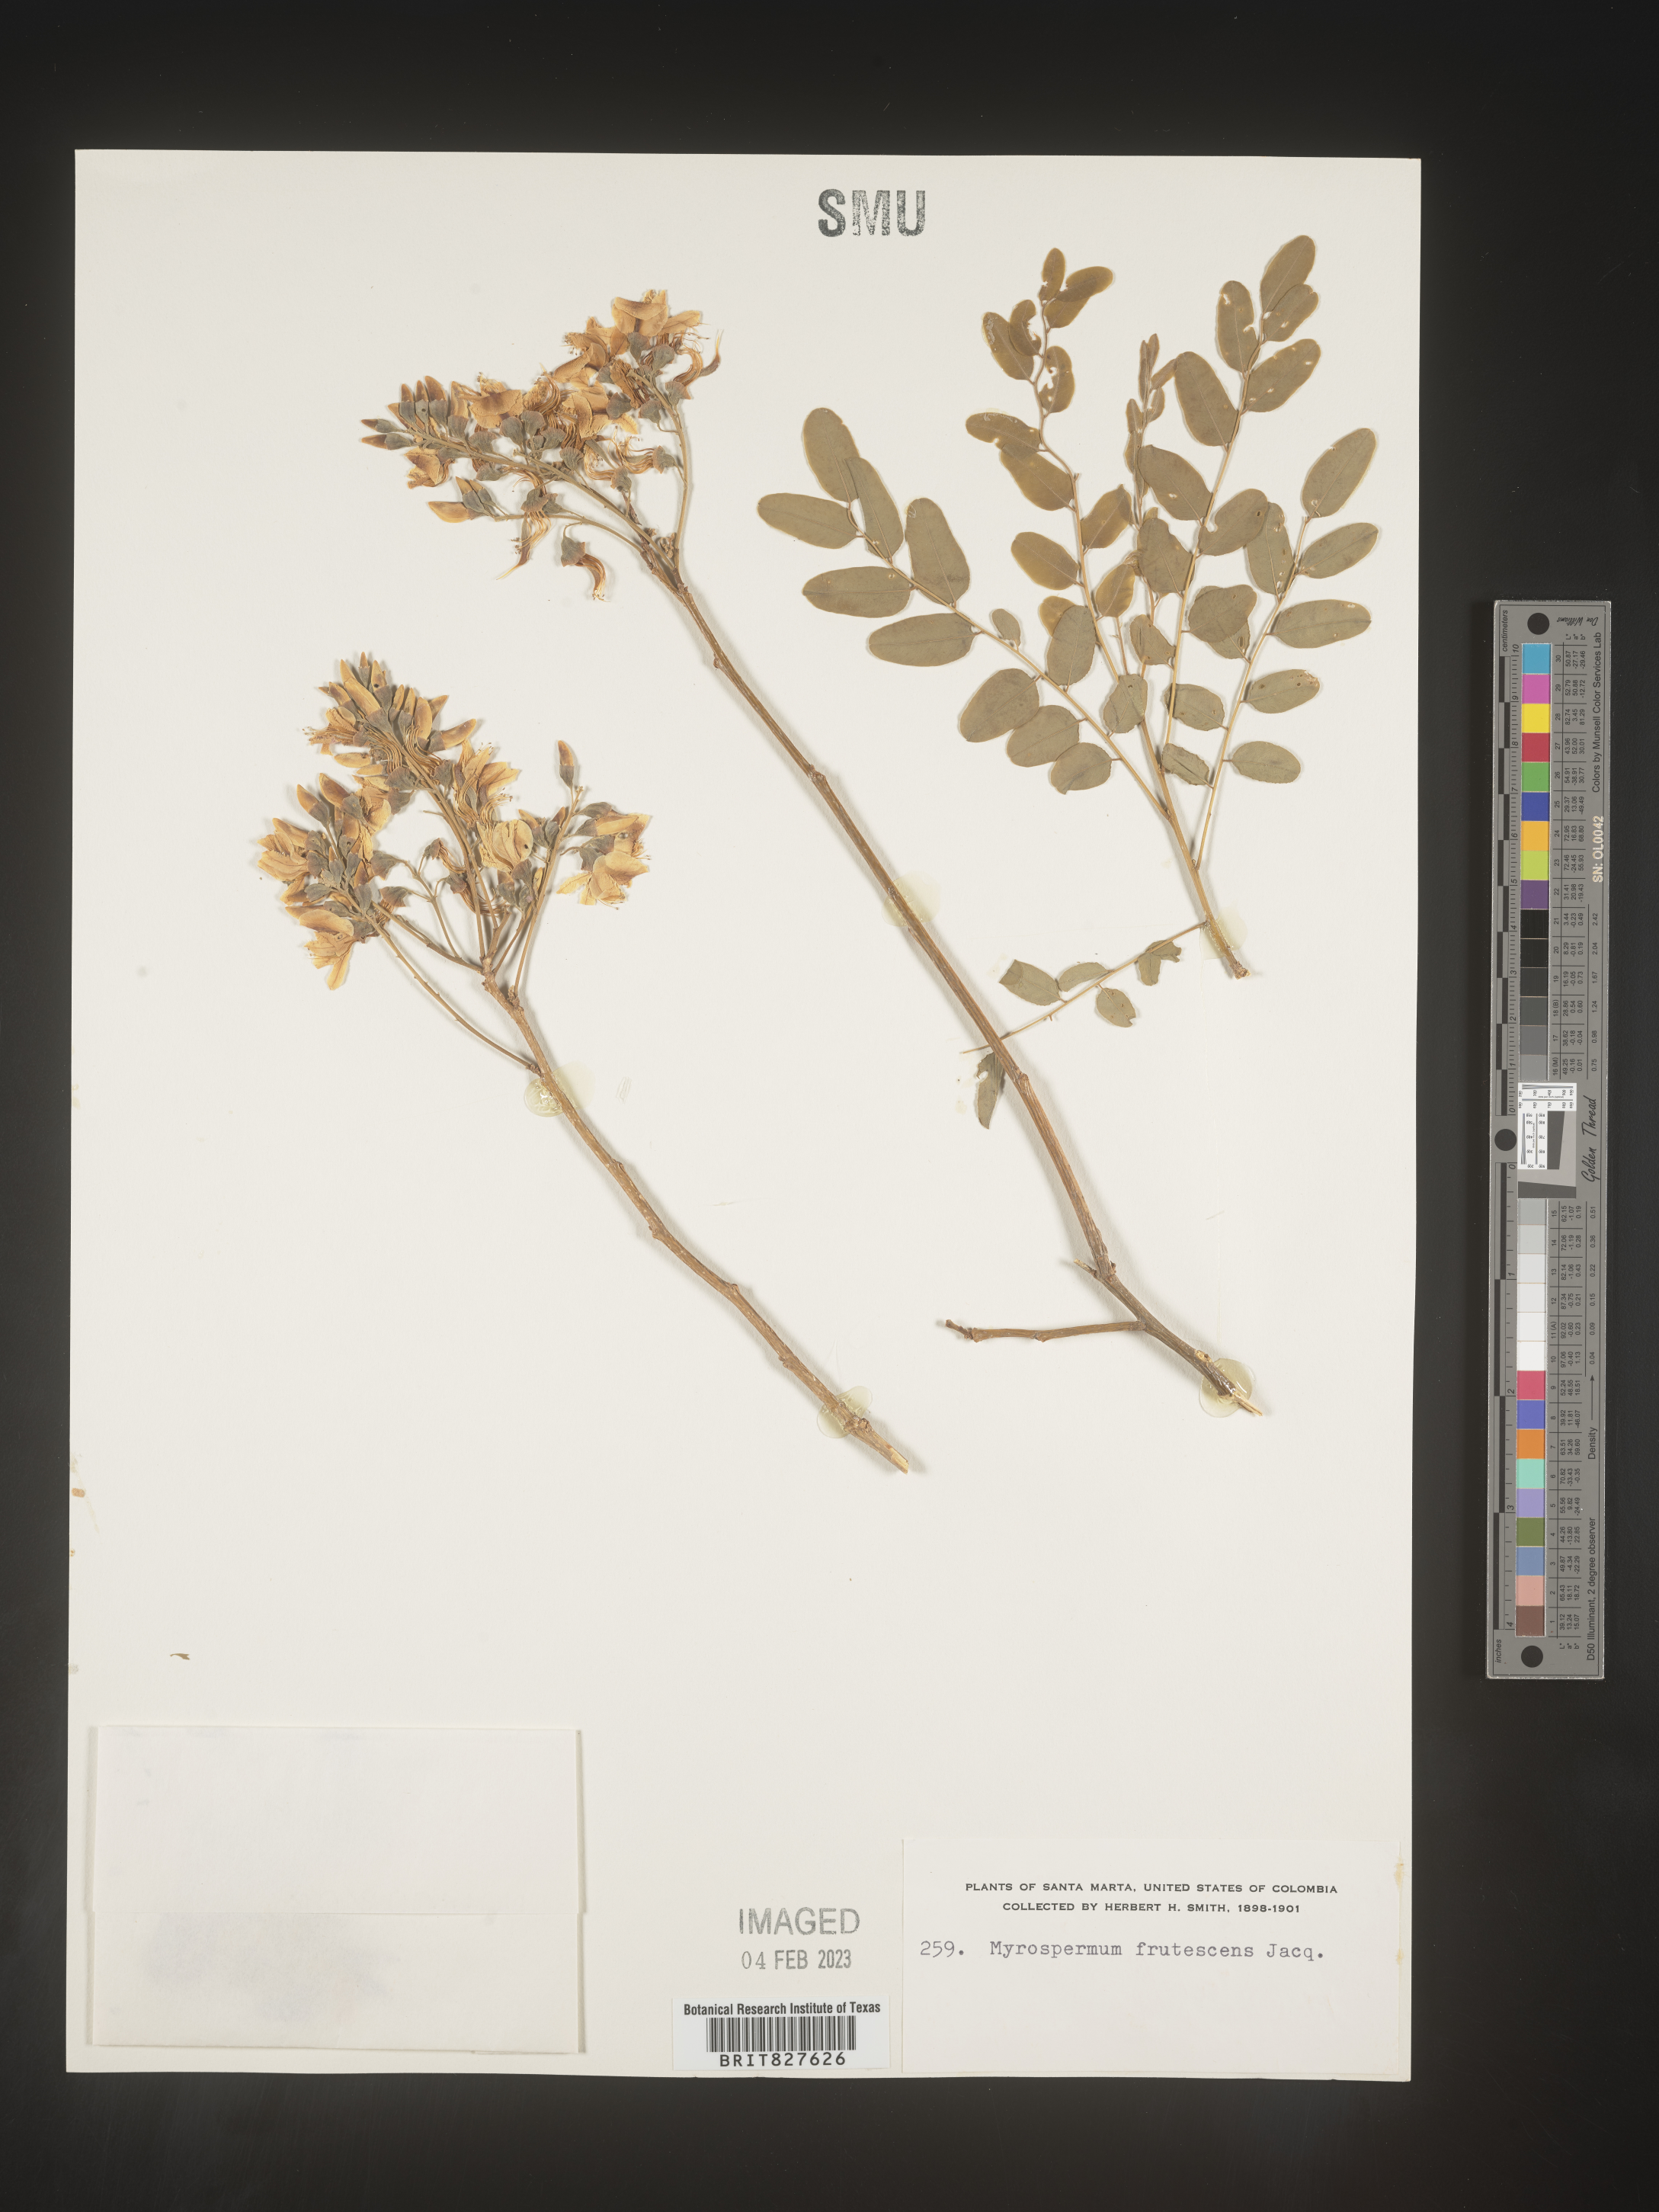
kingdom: Plantae
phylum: Tracheophyta
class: Magnoliopsida
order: Fabales
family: Fabaceae
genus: Myrospermum
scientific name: Myrospermum
